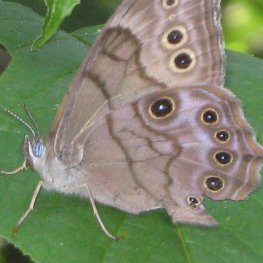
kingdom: Animalia
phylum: Arthropoda
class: Insecta
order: Lepidoptera
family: Nymphalidae
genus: Lethe
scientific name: Lethe anthedon
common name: Northern Pearly-Eye
